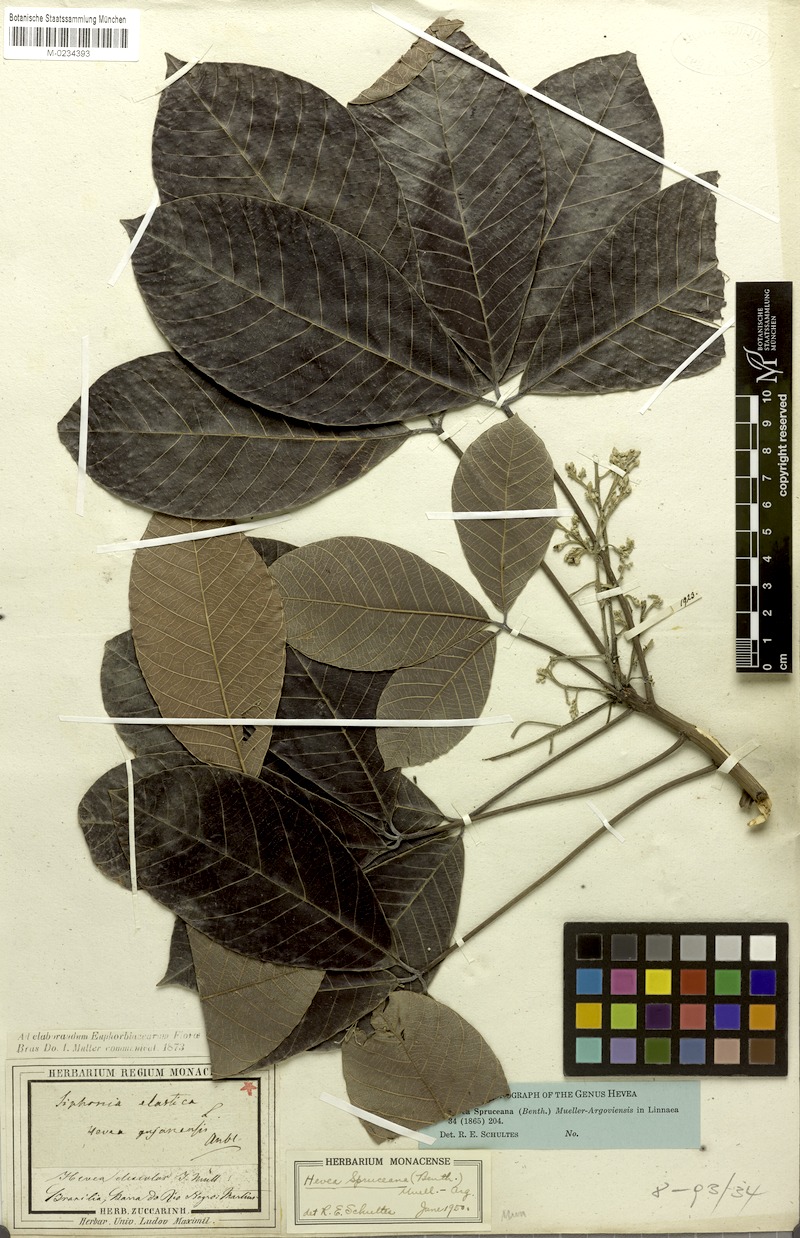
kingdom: Plantae
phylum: Tracheophyta
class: Magnoliopsida
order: Malpighiales
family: Euphorbiaceae
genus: Hevea
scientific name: Hevea spruceana
